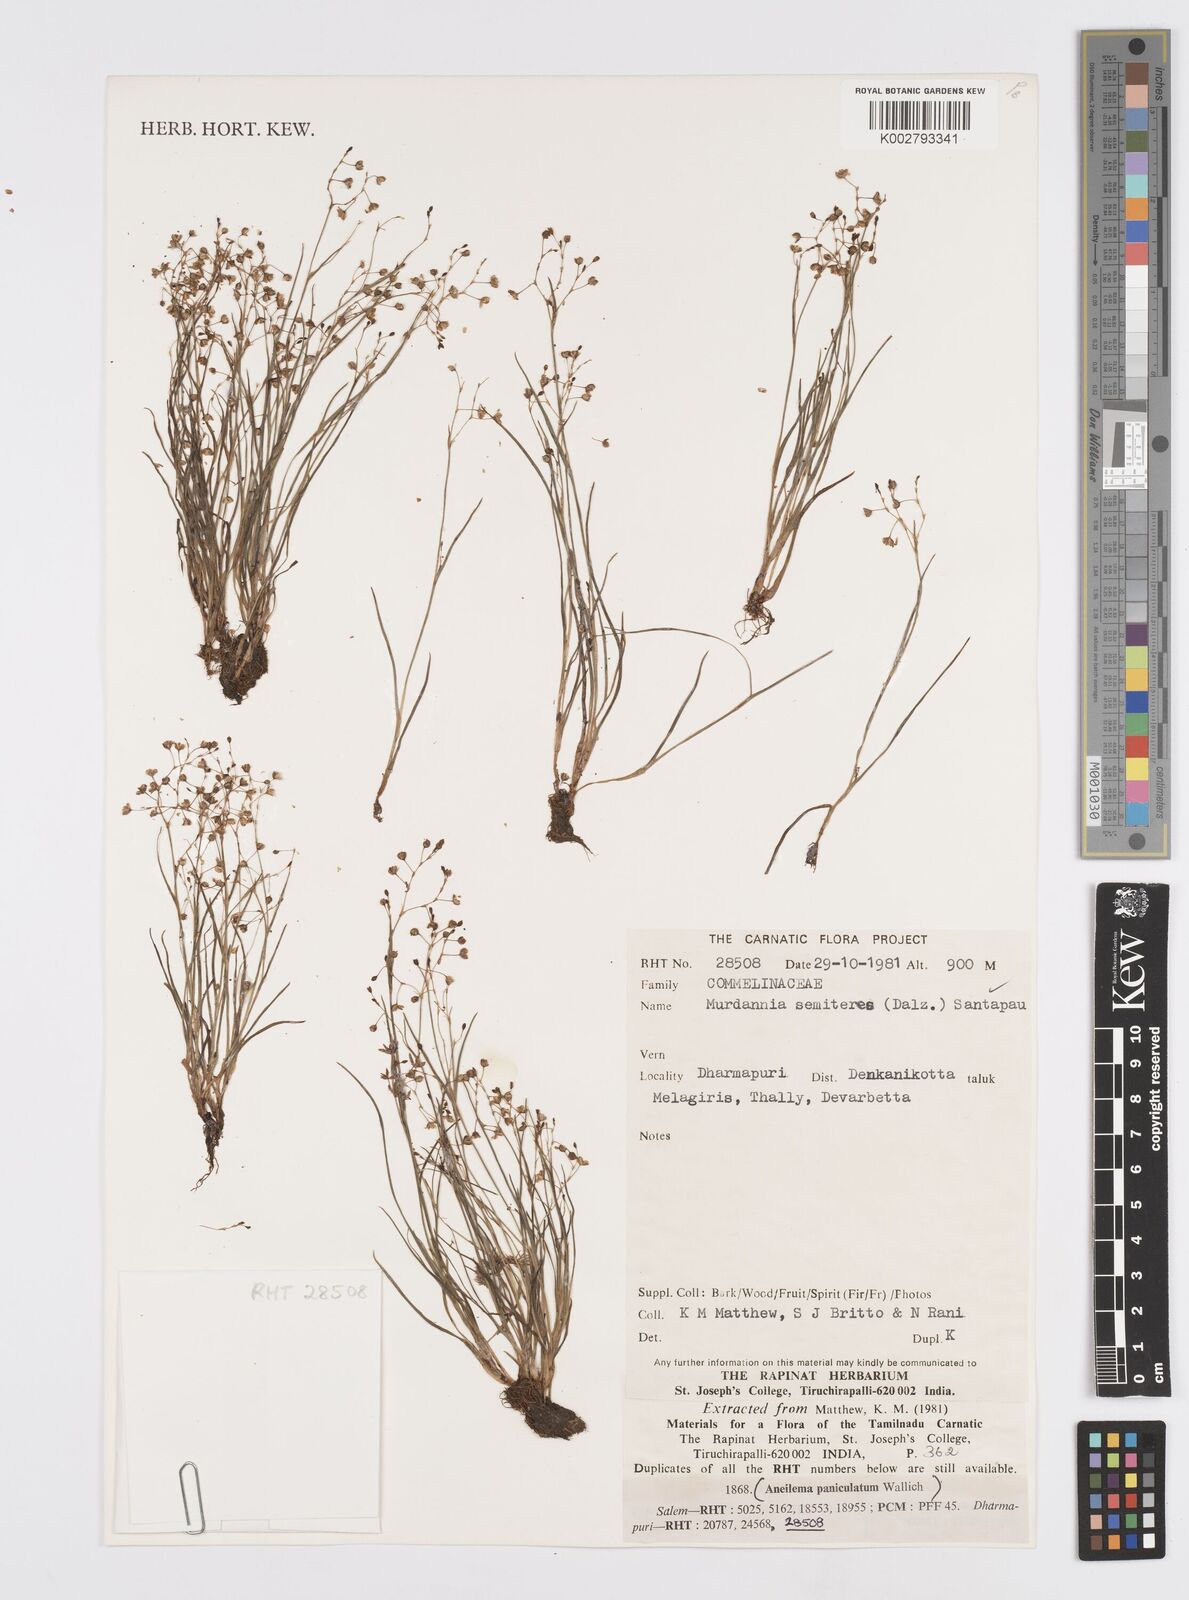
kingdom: Plantae
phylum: Tracheophyta
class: Liliopsida
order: Commelinales
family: Commelinaceae
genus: Murdannia
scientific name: Murdannia semiteres
